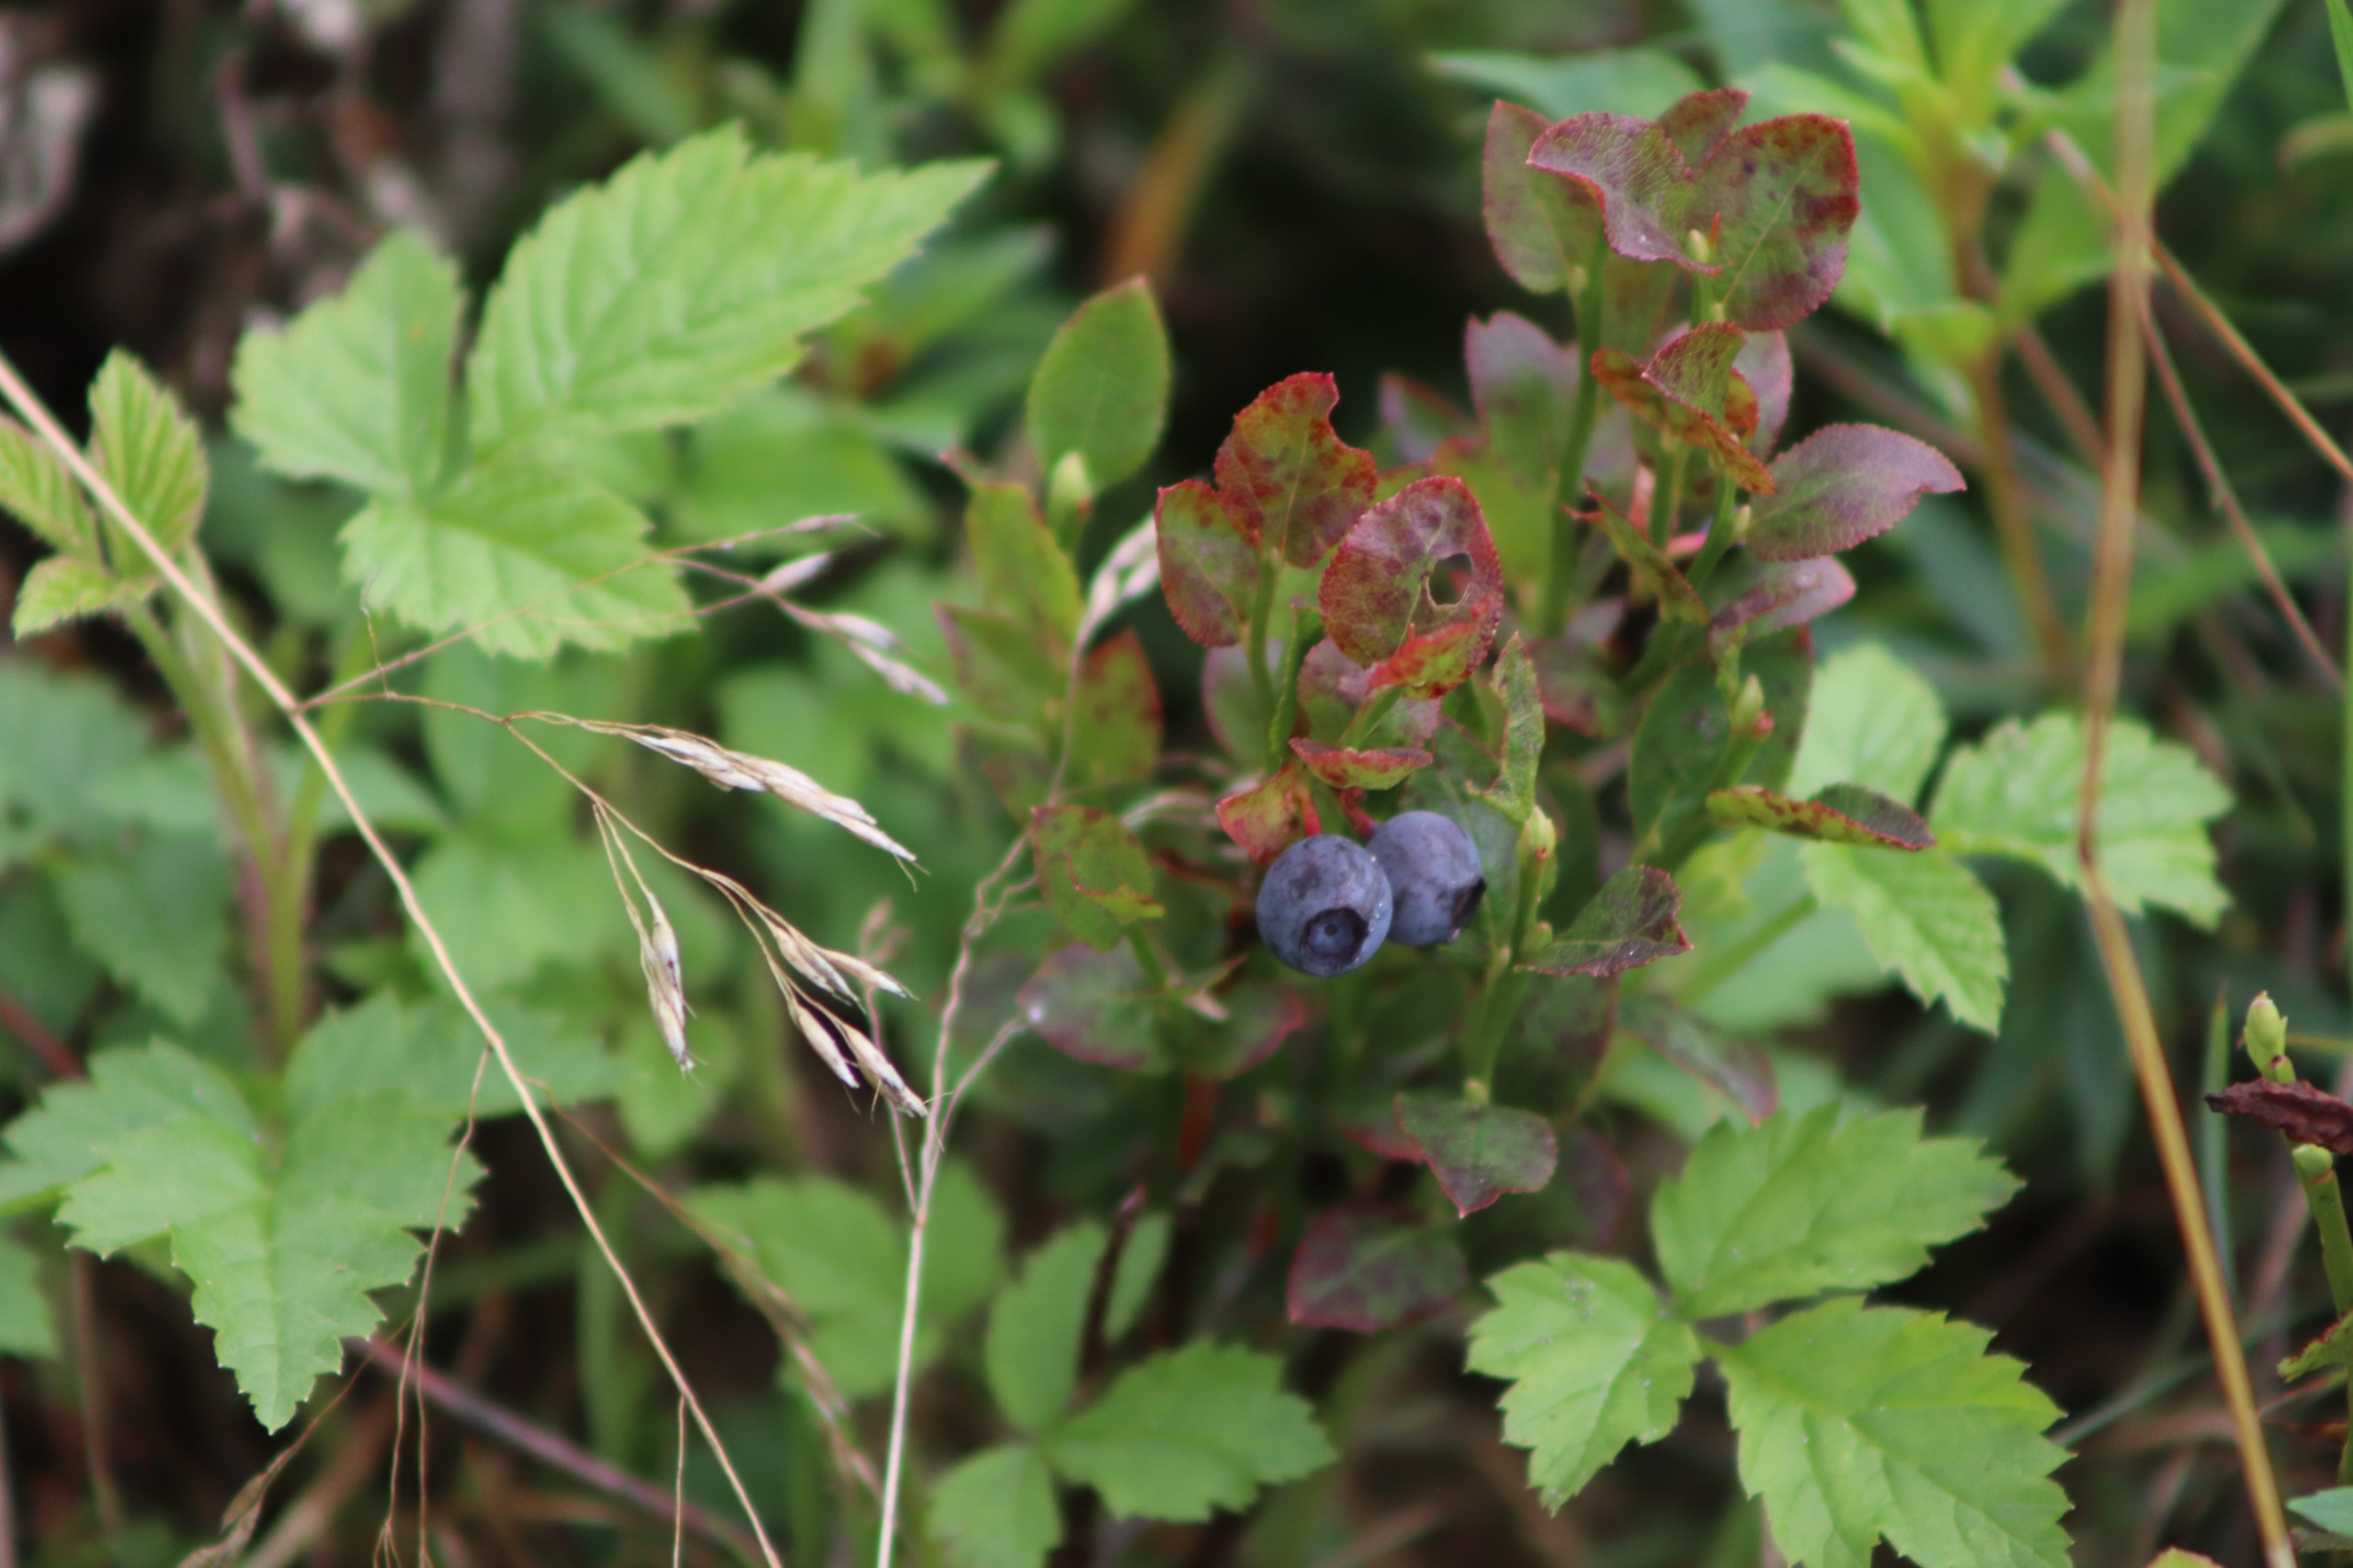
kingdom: Plantae
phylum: Tracheophyta
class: Magnoliopsida
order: Ericales
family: Ericaceae
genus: Vaccinium
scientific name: Vaccinium myrtillus
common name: Blåbær
